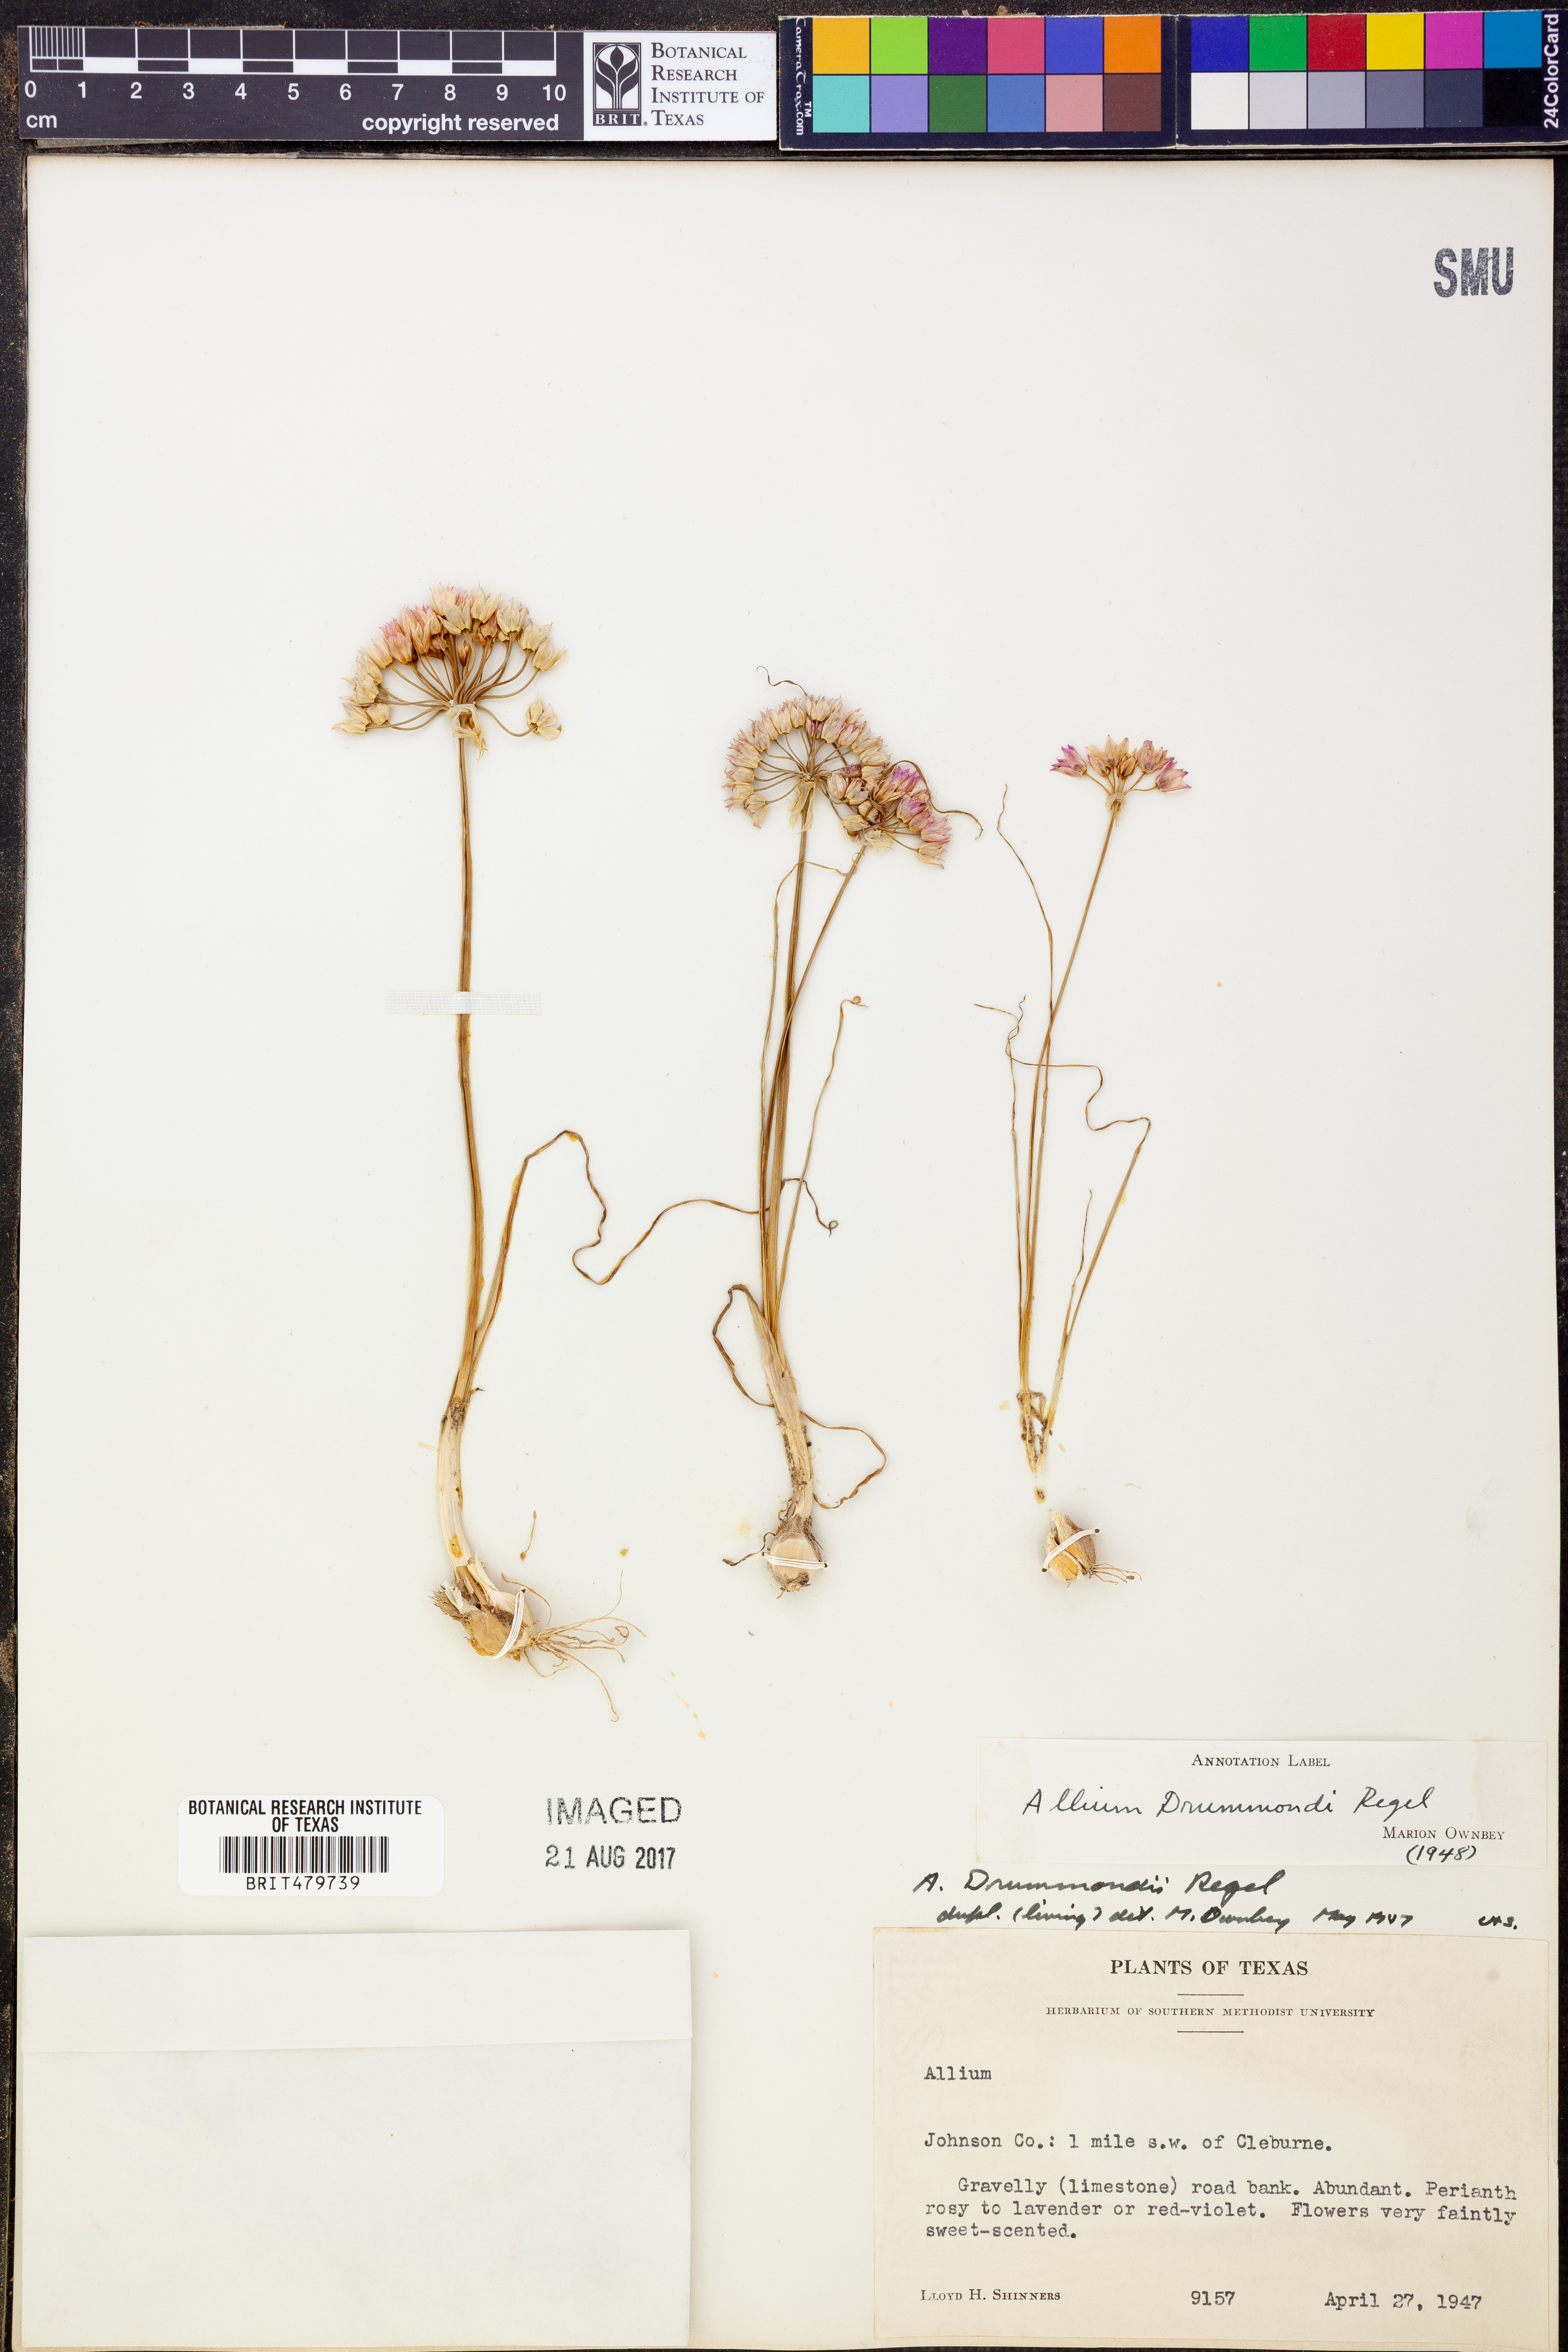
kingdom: Plantae
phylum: Tracheophyta
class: Liliopsida
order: Asparagales
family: Amaryllidaceae
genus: Allium
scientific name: Allium drummondii
